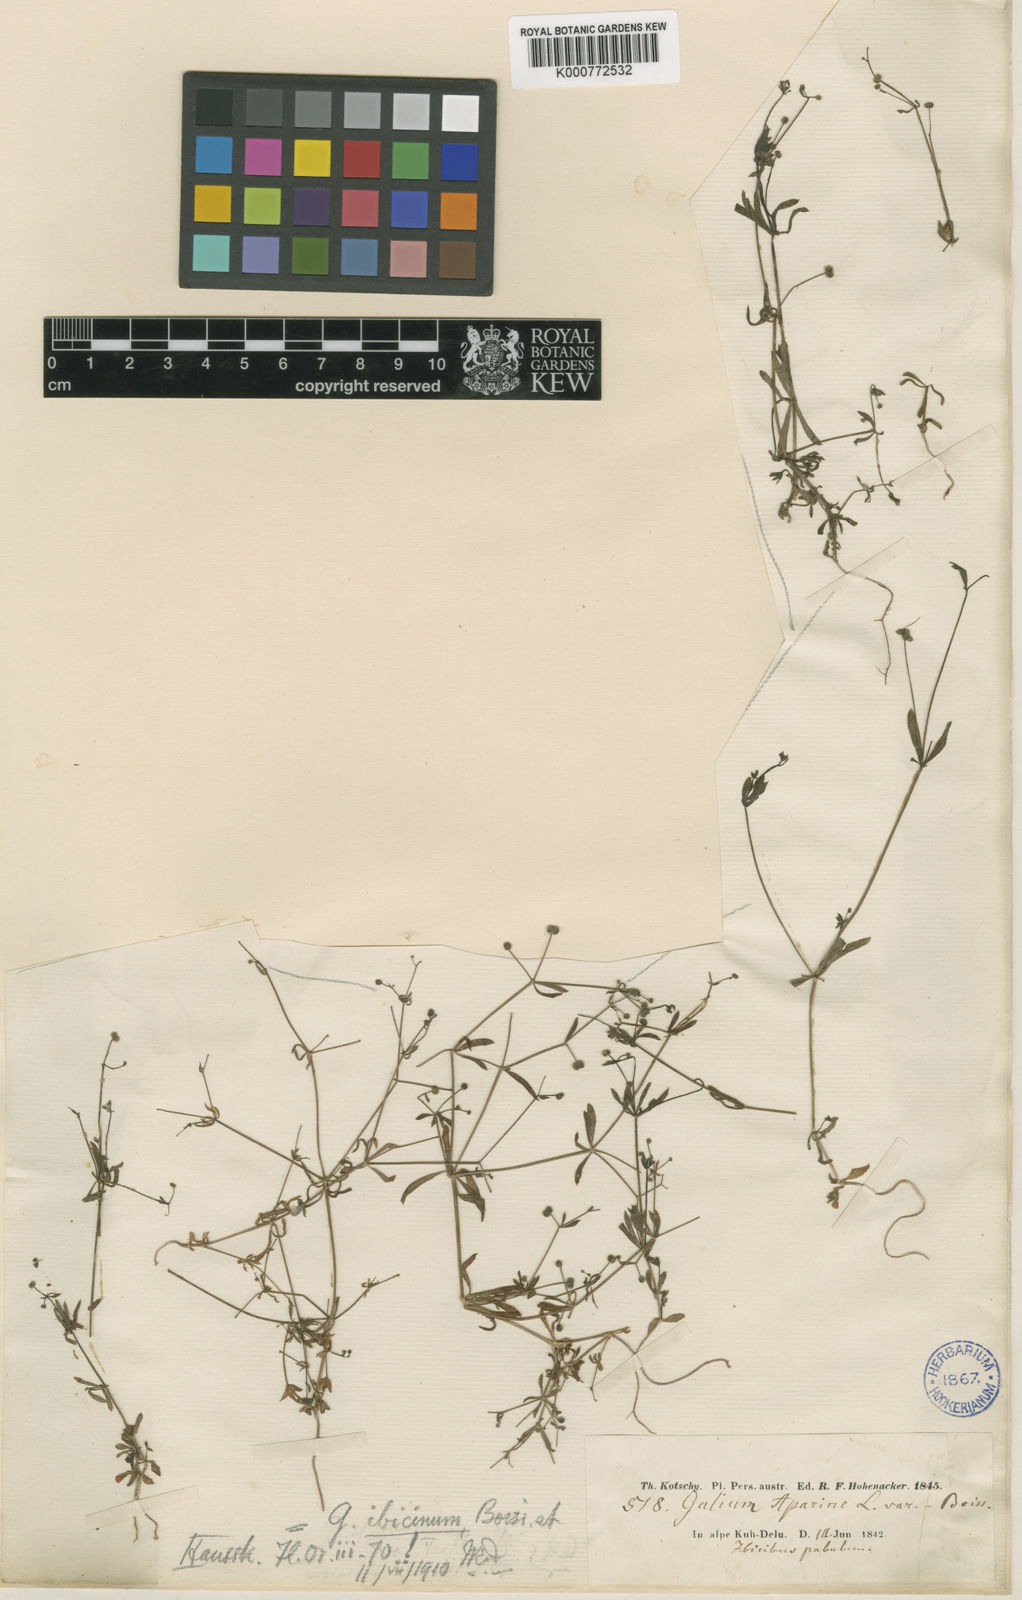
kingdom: Plantae
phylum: Tracheophyta
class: Magnoliopsida
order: Gentianales
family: Rubiaceae
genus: Galium
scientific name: Galium spurium
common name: False cleavers
